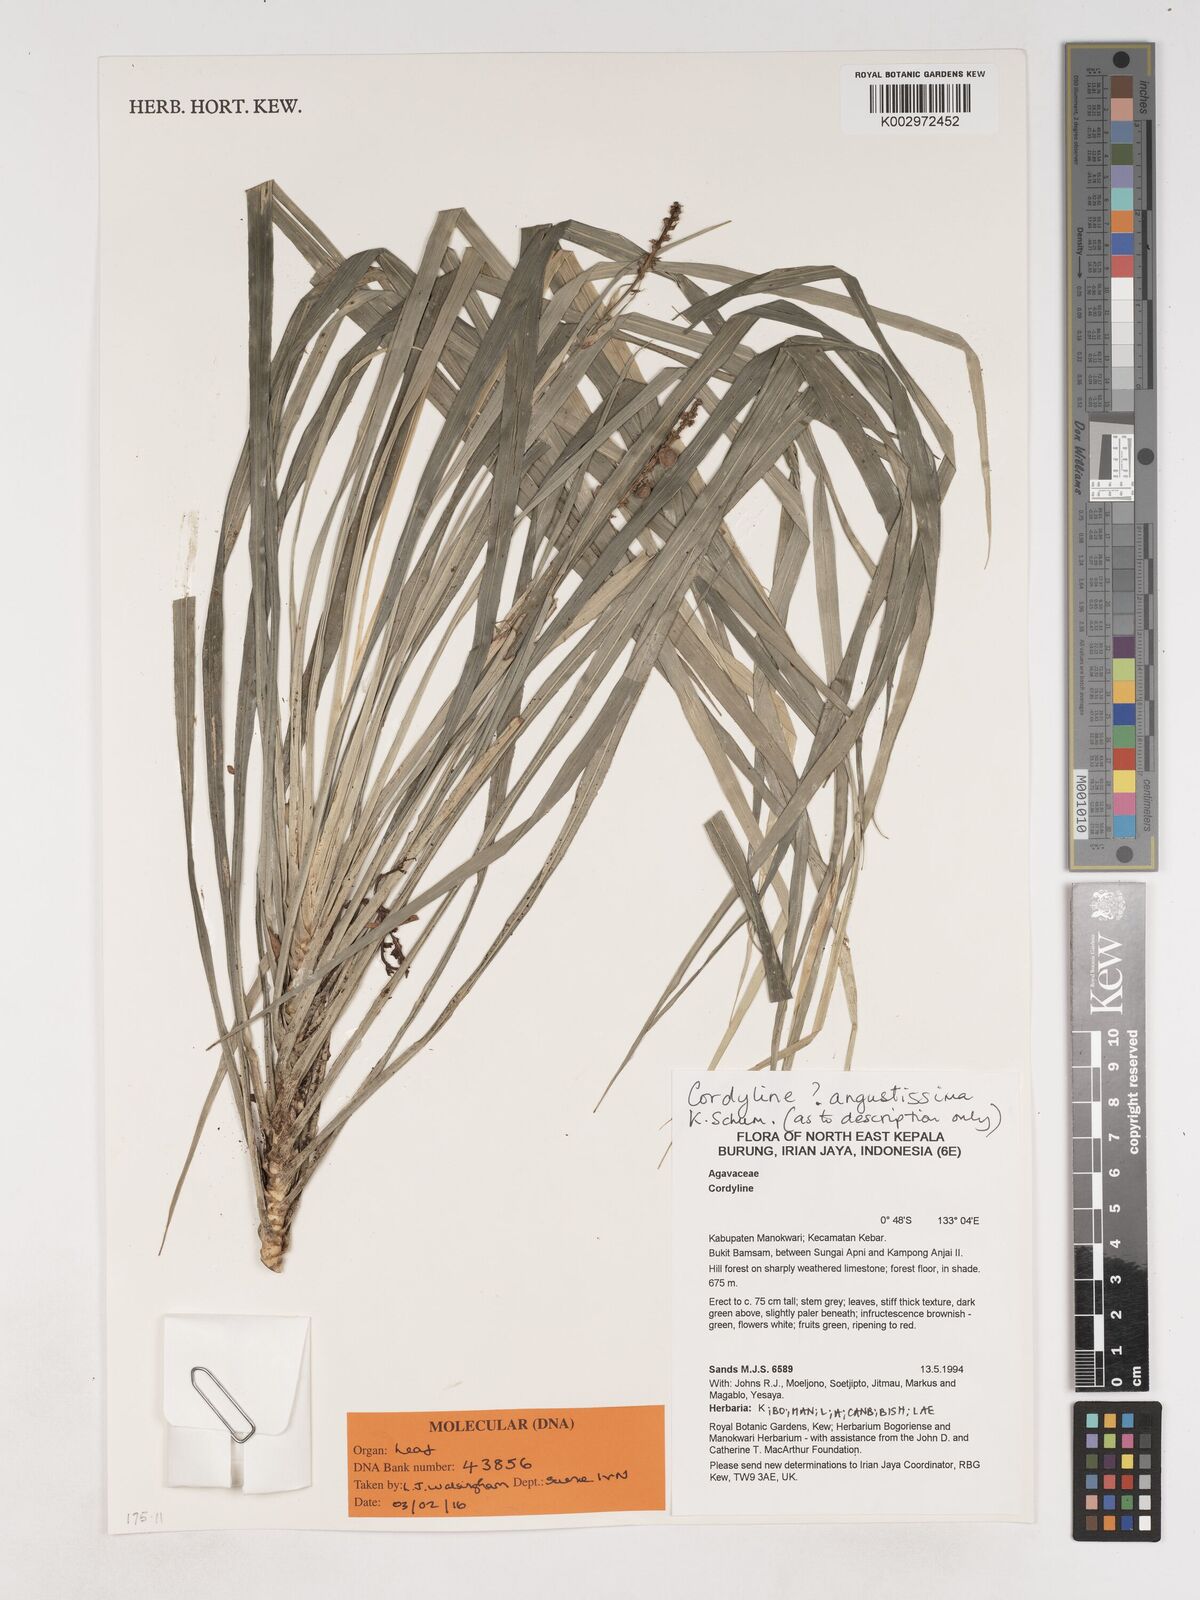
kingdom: Plantae
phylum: Tracheophyta
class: Liliopsida
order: Asparagales
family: Asparagaceae
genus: Cordyline
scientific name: Cordyline angustissima
